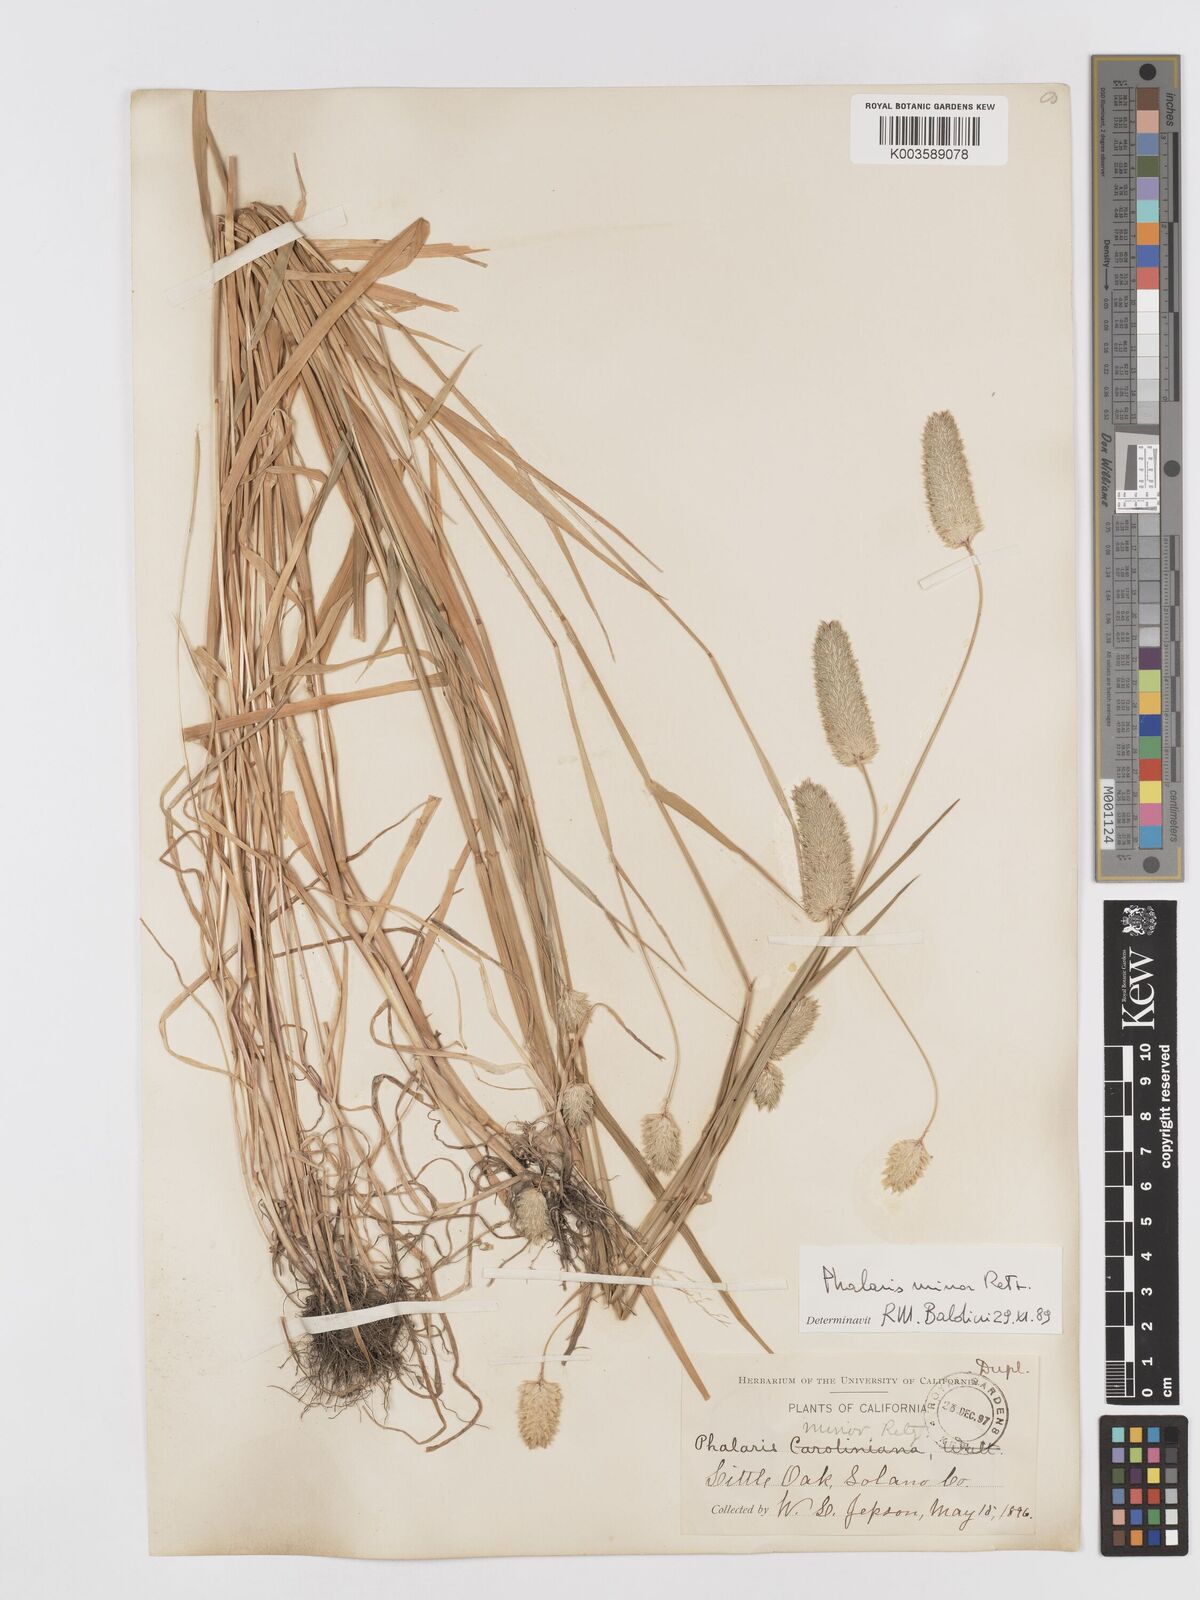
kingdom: Plantae
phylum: Tracheophyta
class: Liliopsida
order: Poales
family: Poaceae
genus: Phalaris
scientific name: Phalaris minor
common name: Littleseed canarygrass
